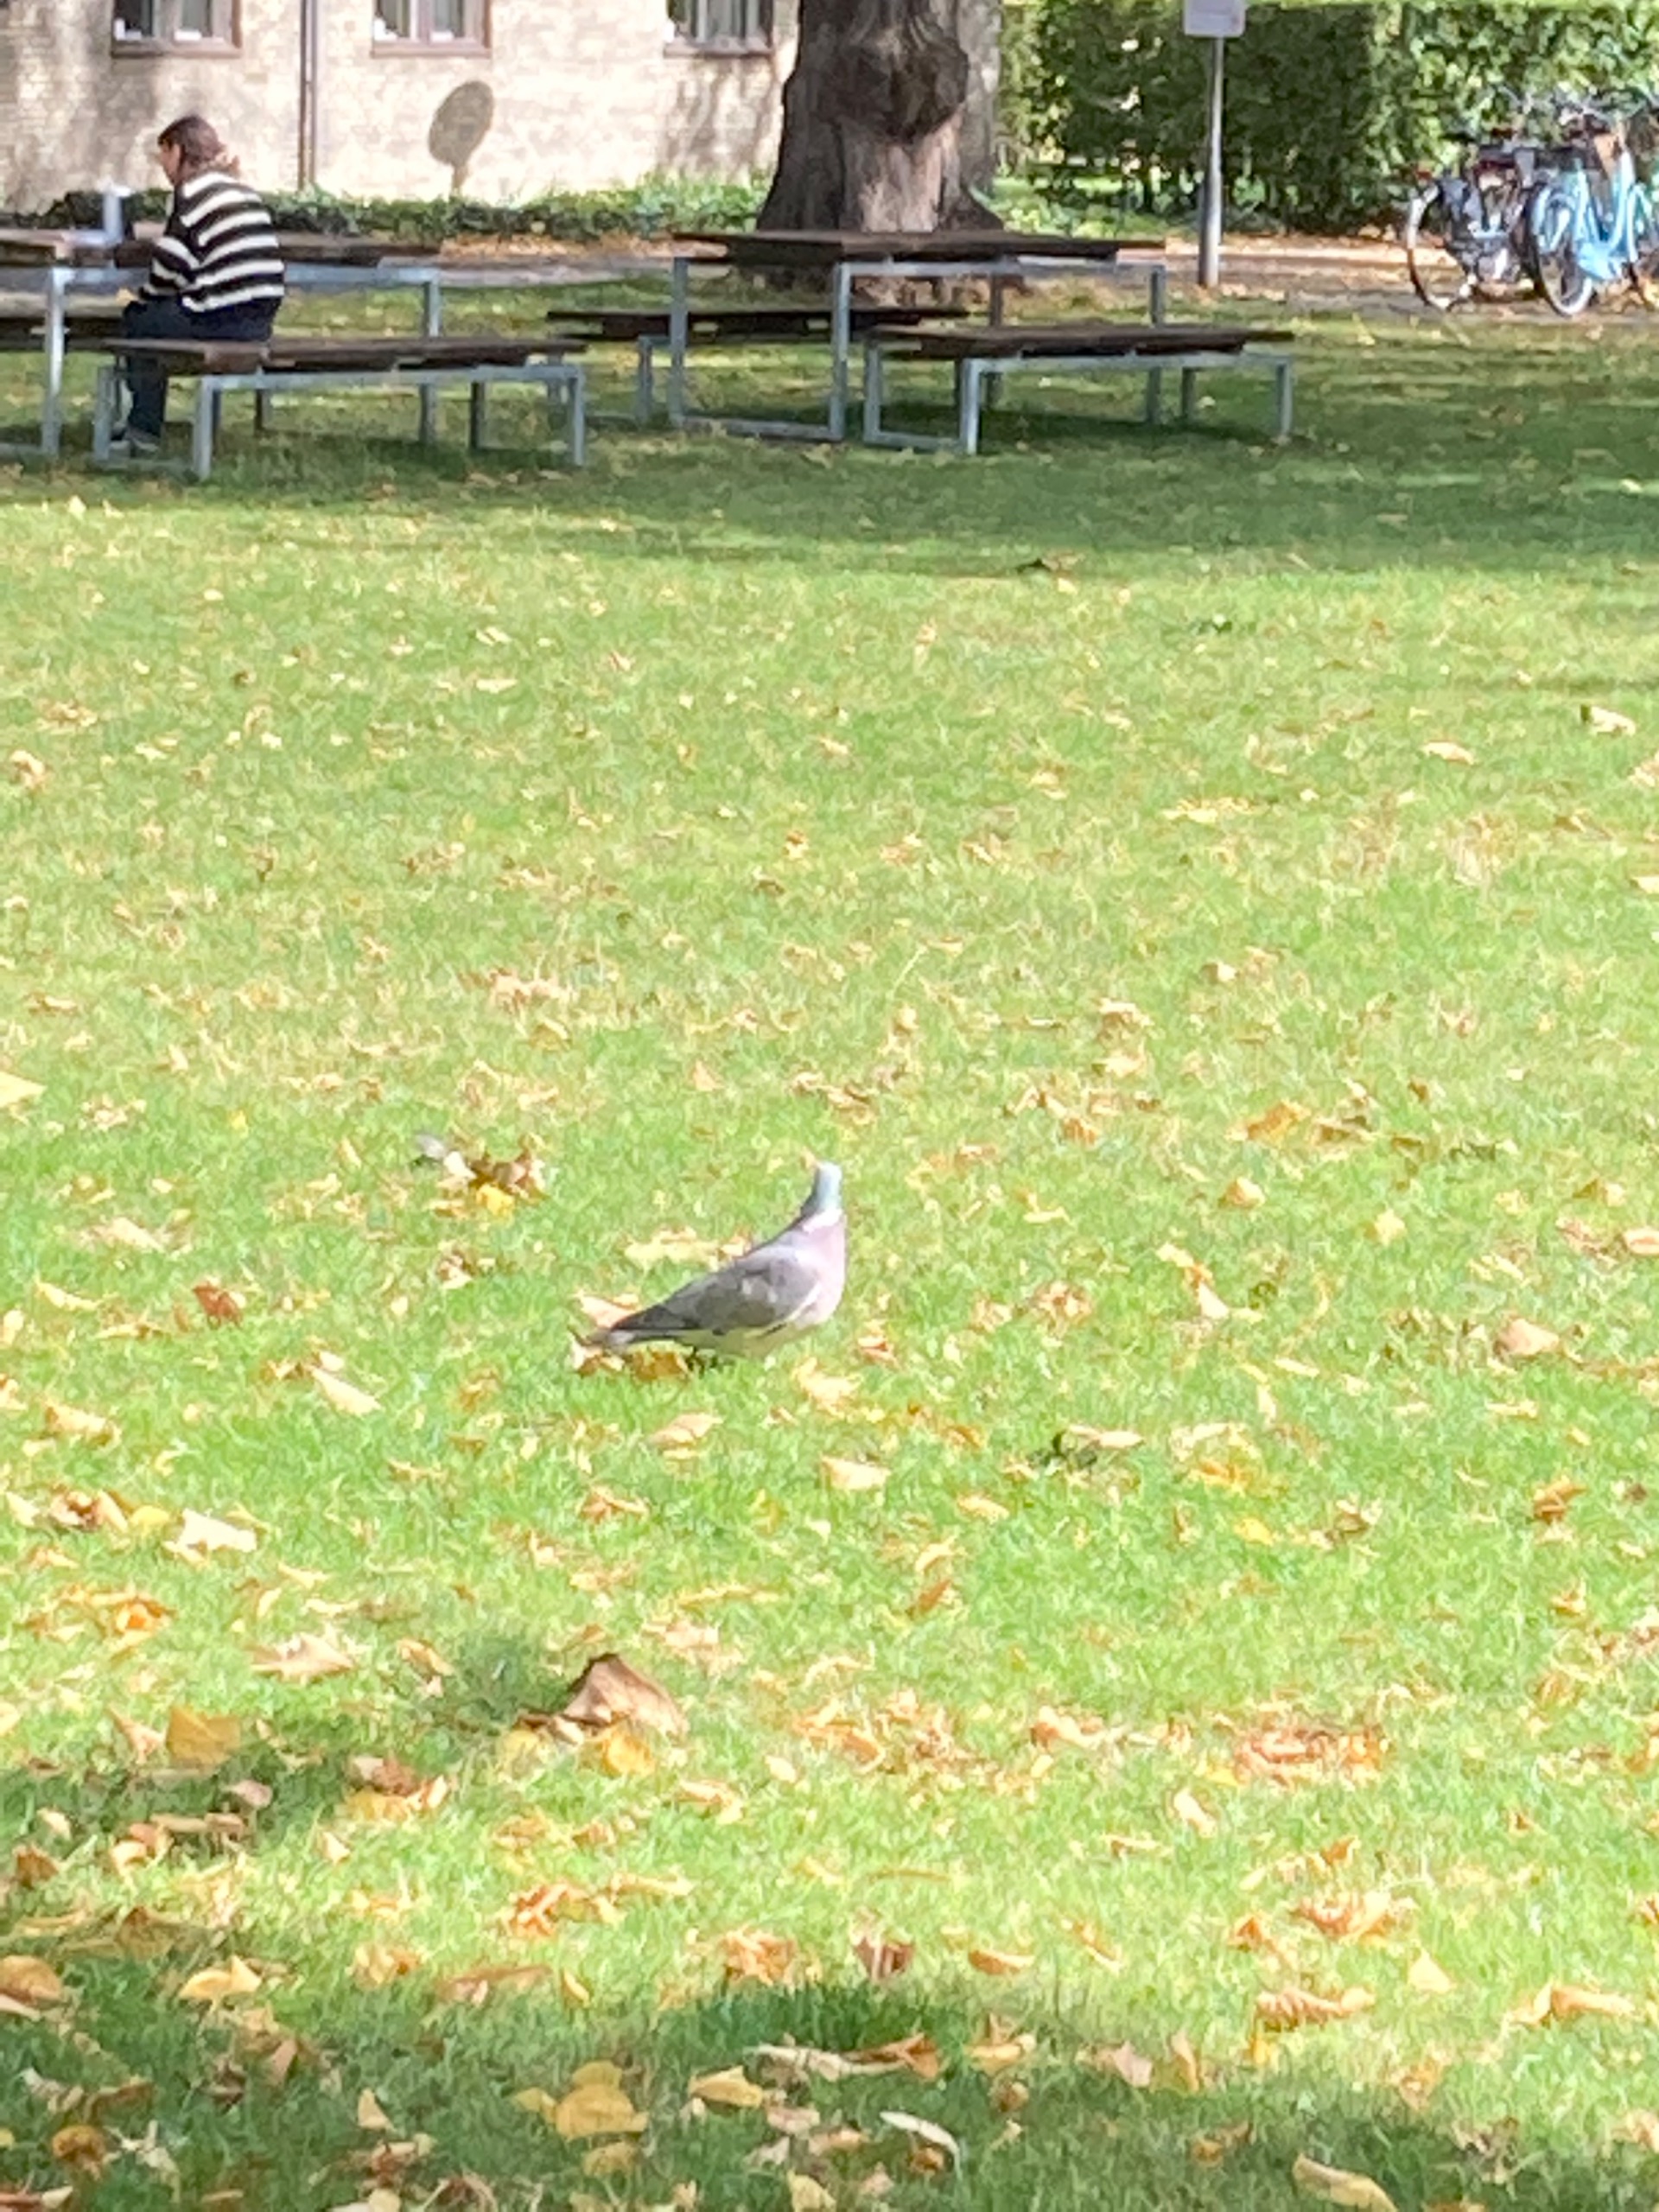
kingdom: Animalia
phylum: Chordata
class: Aves
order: Columbiformes
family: Columbidae
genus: Columba
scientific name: Columba palumbus
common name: Ringdue
